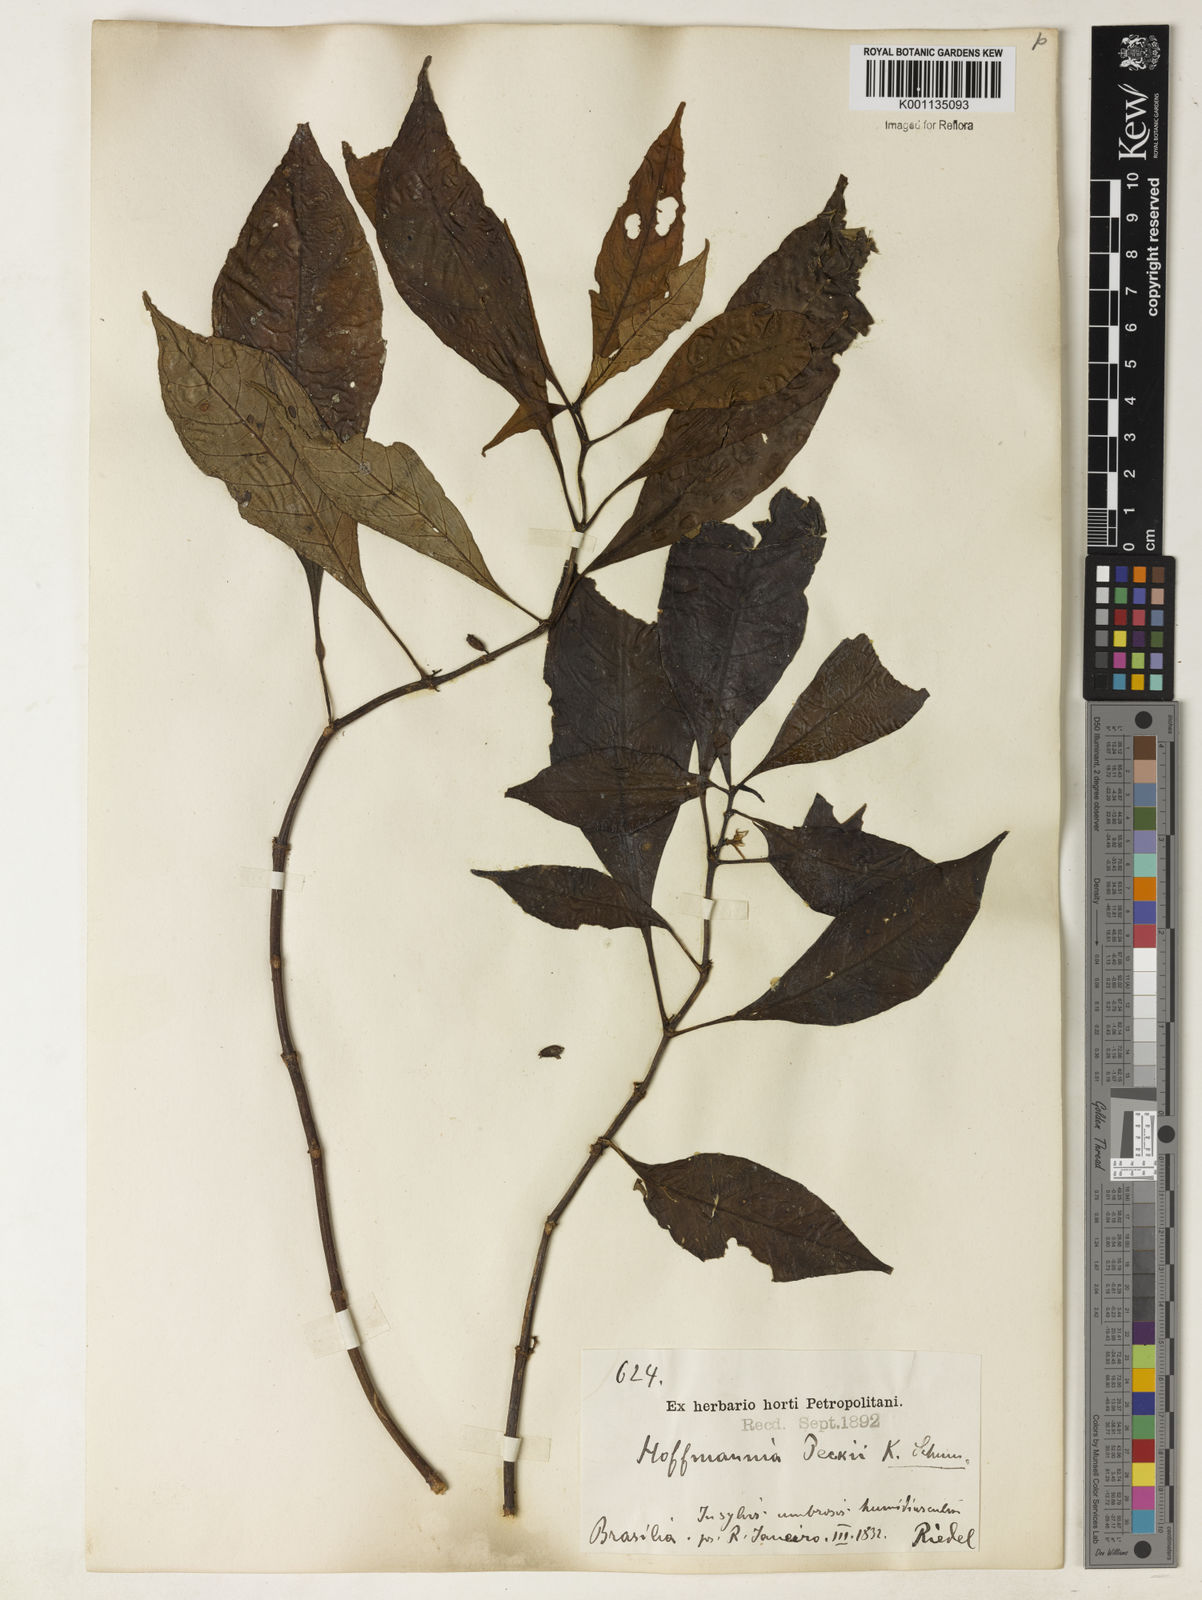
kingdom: Plantae
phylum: Tracheophyta
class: Magnoliopsida
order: Gentianales
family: Rubiaceae
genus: Hoffmannia
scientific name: Hoffmannia peckii
